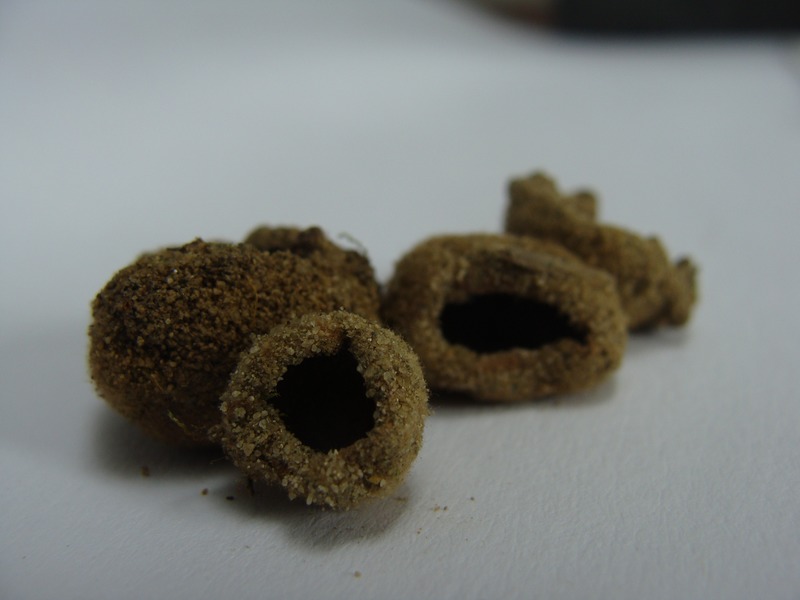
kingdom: Fungi
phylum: Ascomycota
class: Pezizomycetes
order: Pezizales
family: Pyronemataceae
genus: Geopora
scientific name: Geopora arenicola
